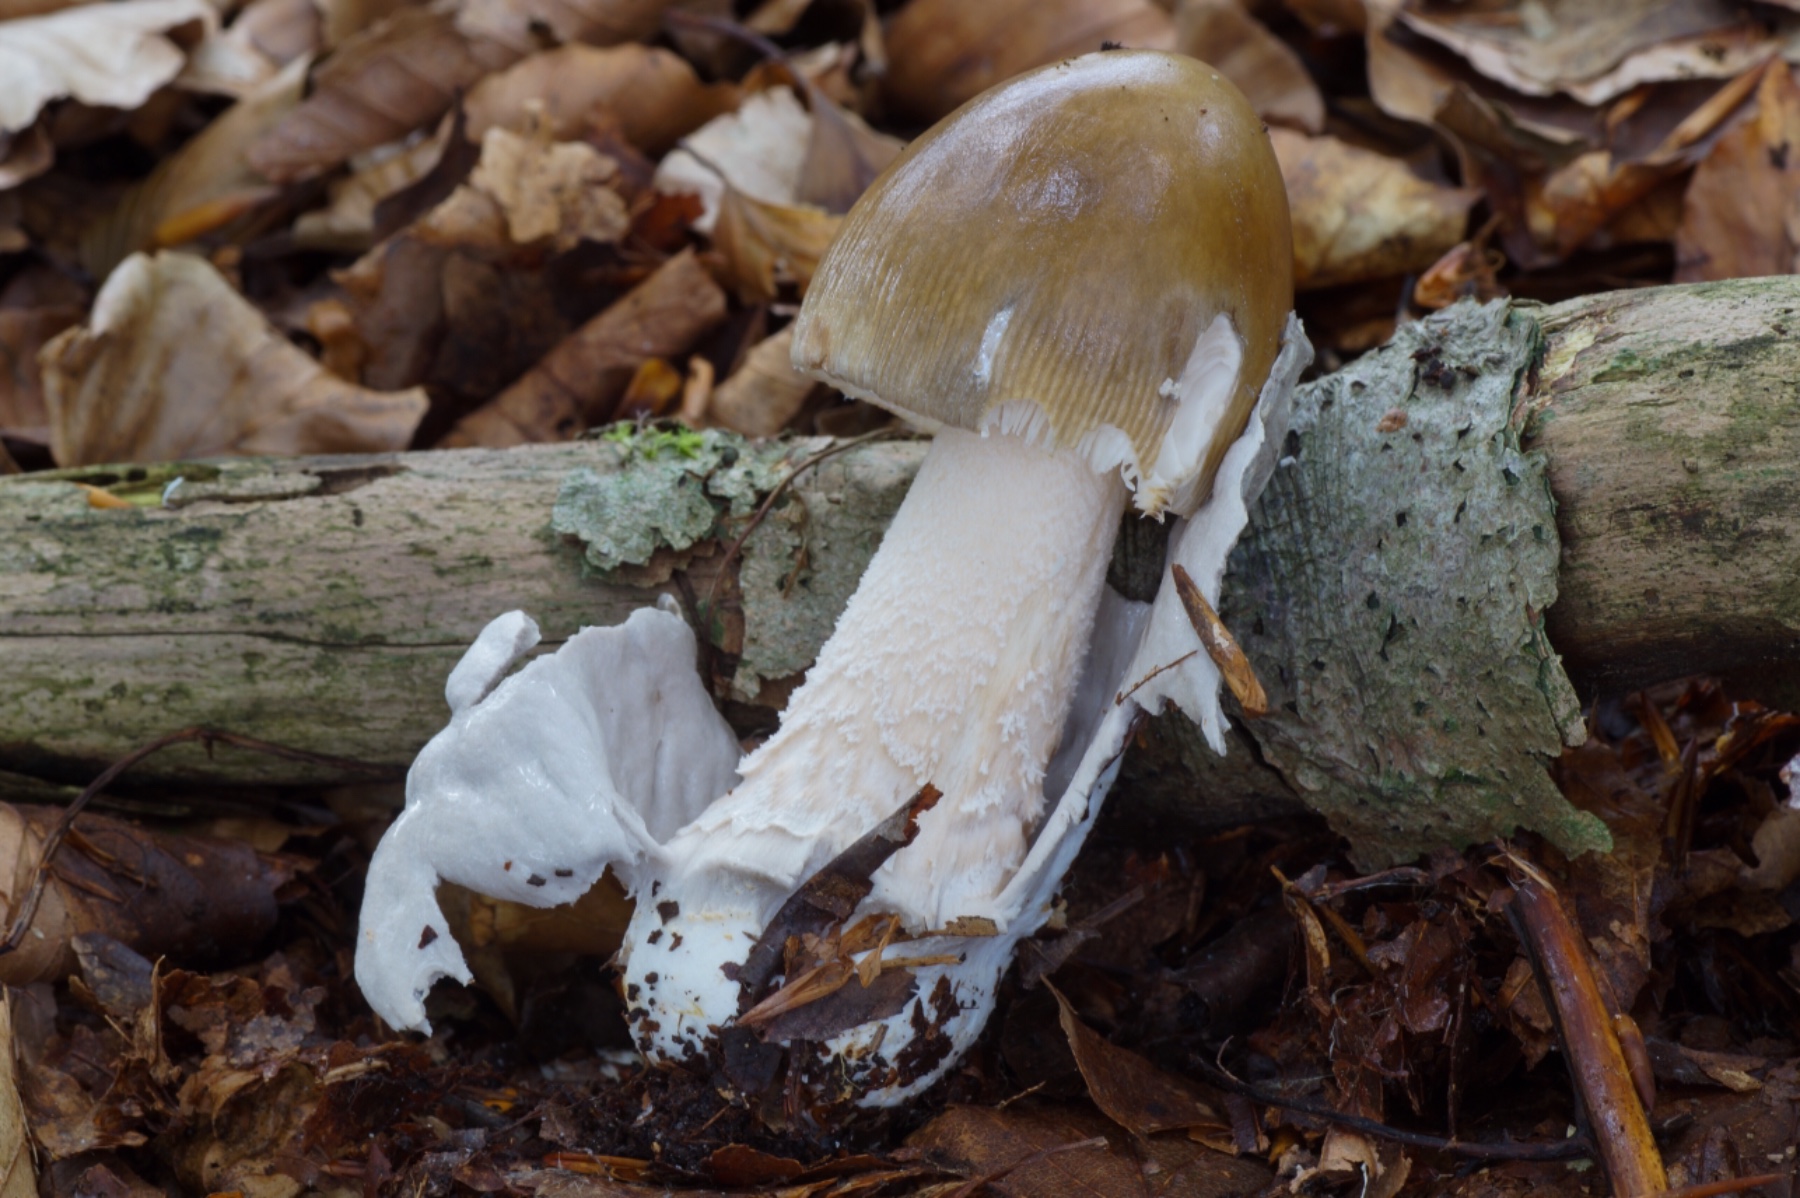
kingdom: Fungi
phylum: Basidiomycota
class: Agaricomycetes
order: Agaricales
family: Amanitaceae
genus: Amanita
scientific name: Amanita fulva
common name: brun kam-fluesvamp
